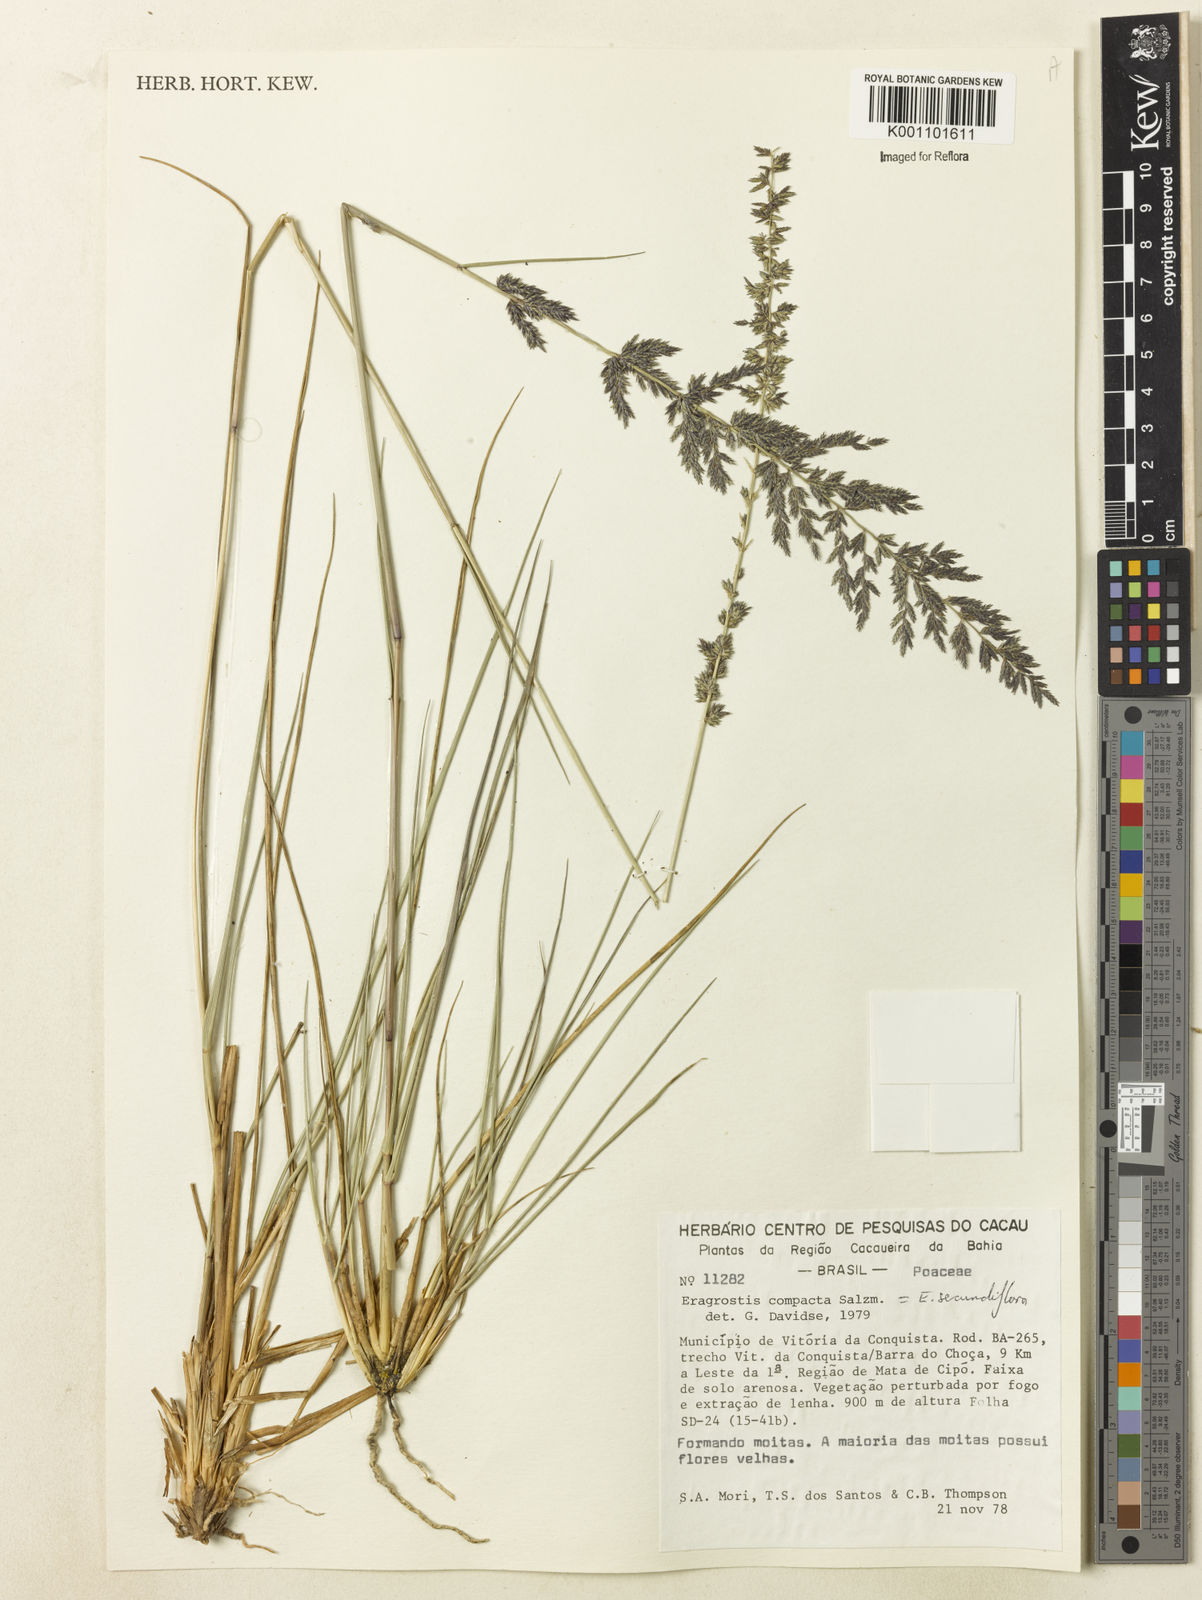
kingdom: Plantae
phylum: Tracheophyta
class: Liliopsida
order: Poales
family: Poaceae
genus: Eragrostis
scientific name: Eragrostis petrensis
